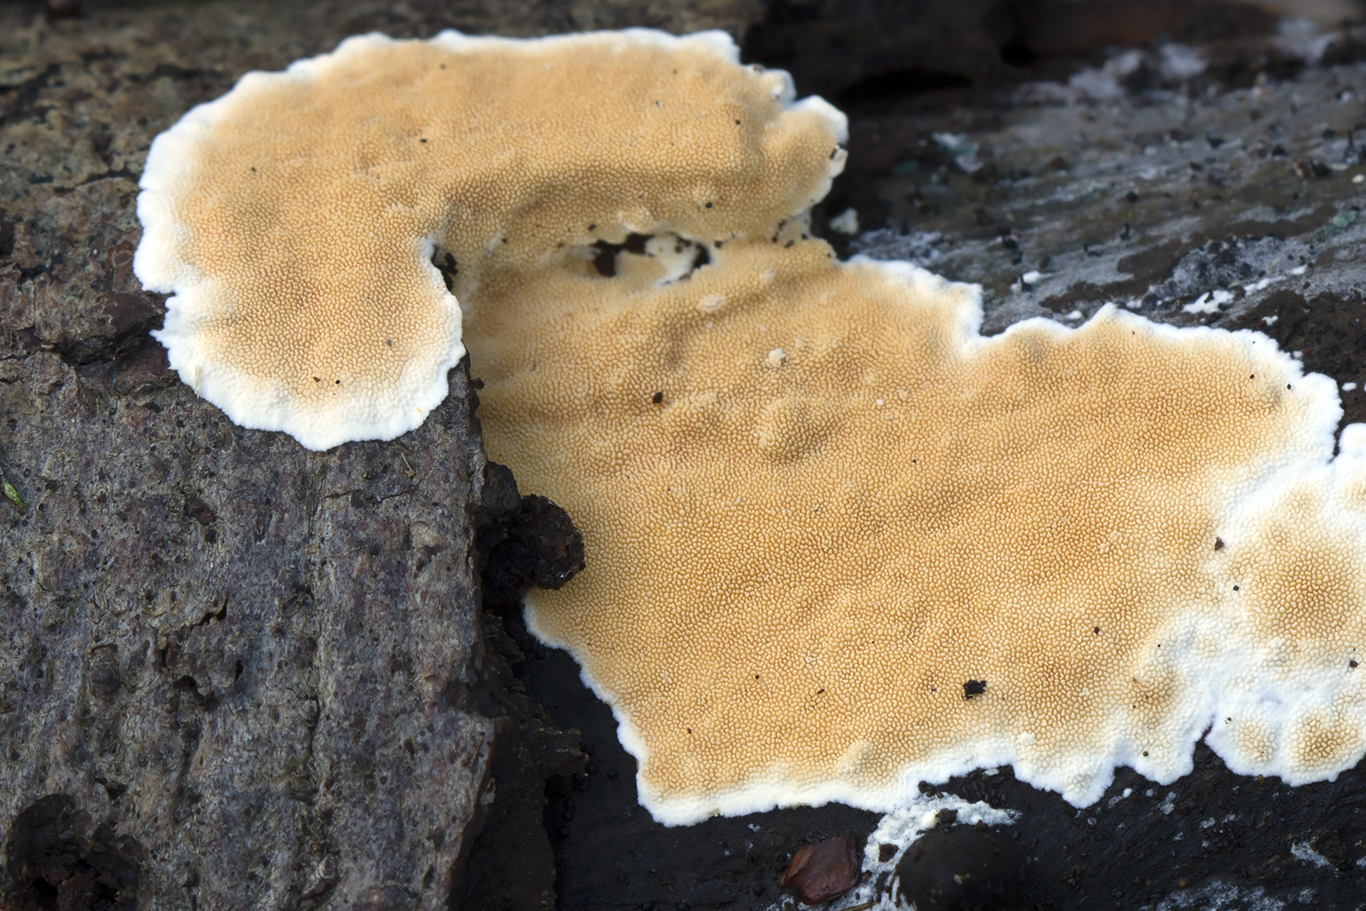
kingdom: Fungi
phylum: Basidiomycota
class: Agaricomycetes
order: Polyporales
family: Steccherinaceae
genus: Steccherinum
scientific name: Steccherinum ochraceum
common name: almindelig skønpig
